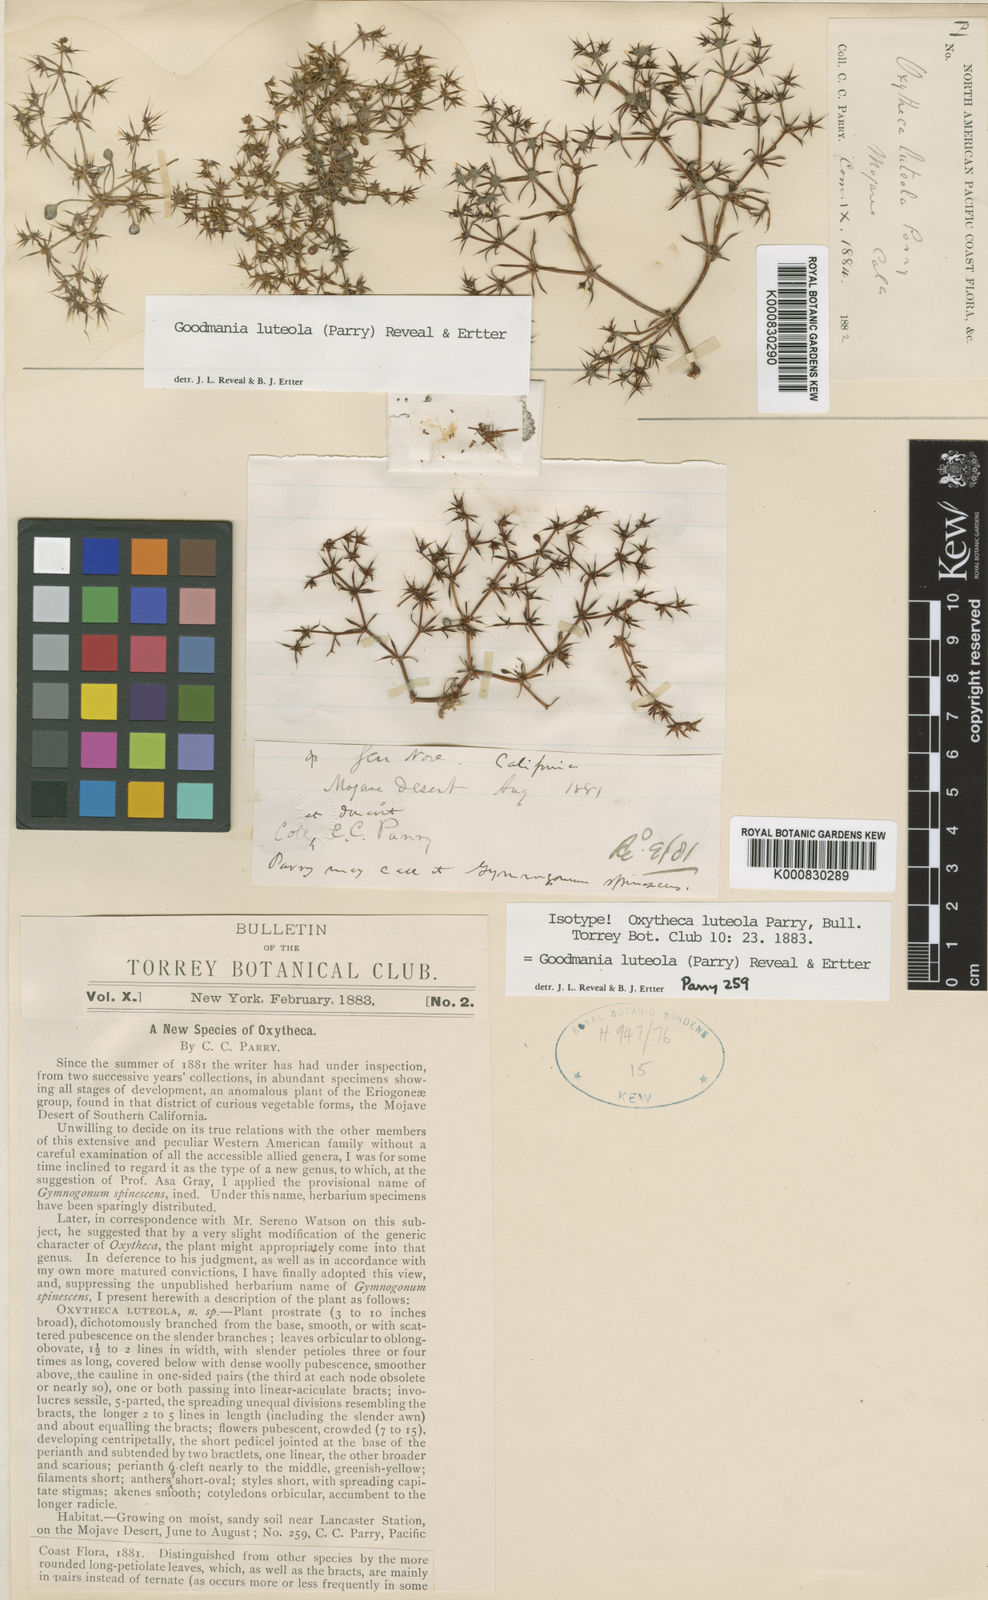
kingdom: Plantae
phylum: Tracheophyta
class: Magnoliopsida
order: Caryophyllales
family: Polygonaceae
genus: Goodmania
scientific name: Goodmania luteola
